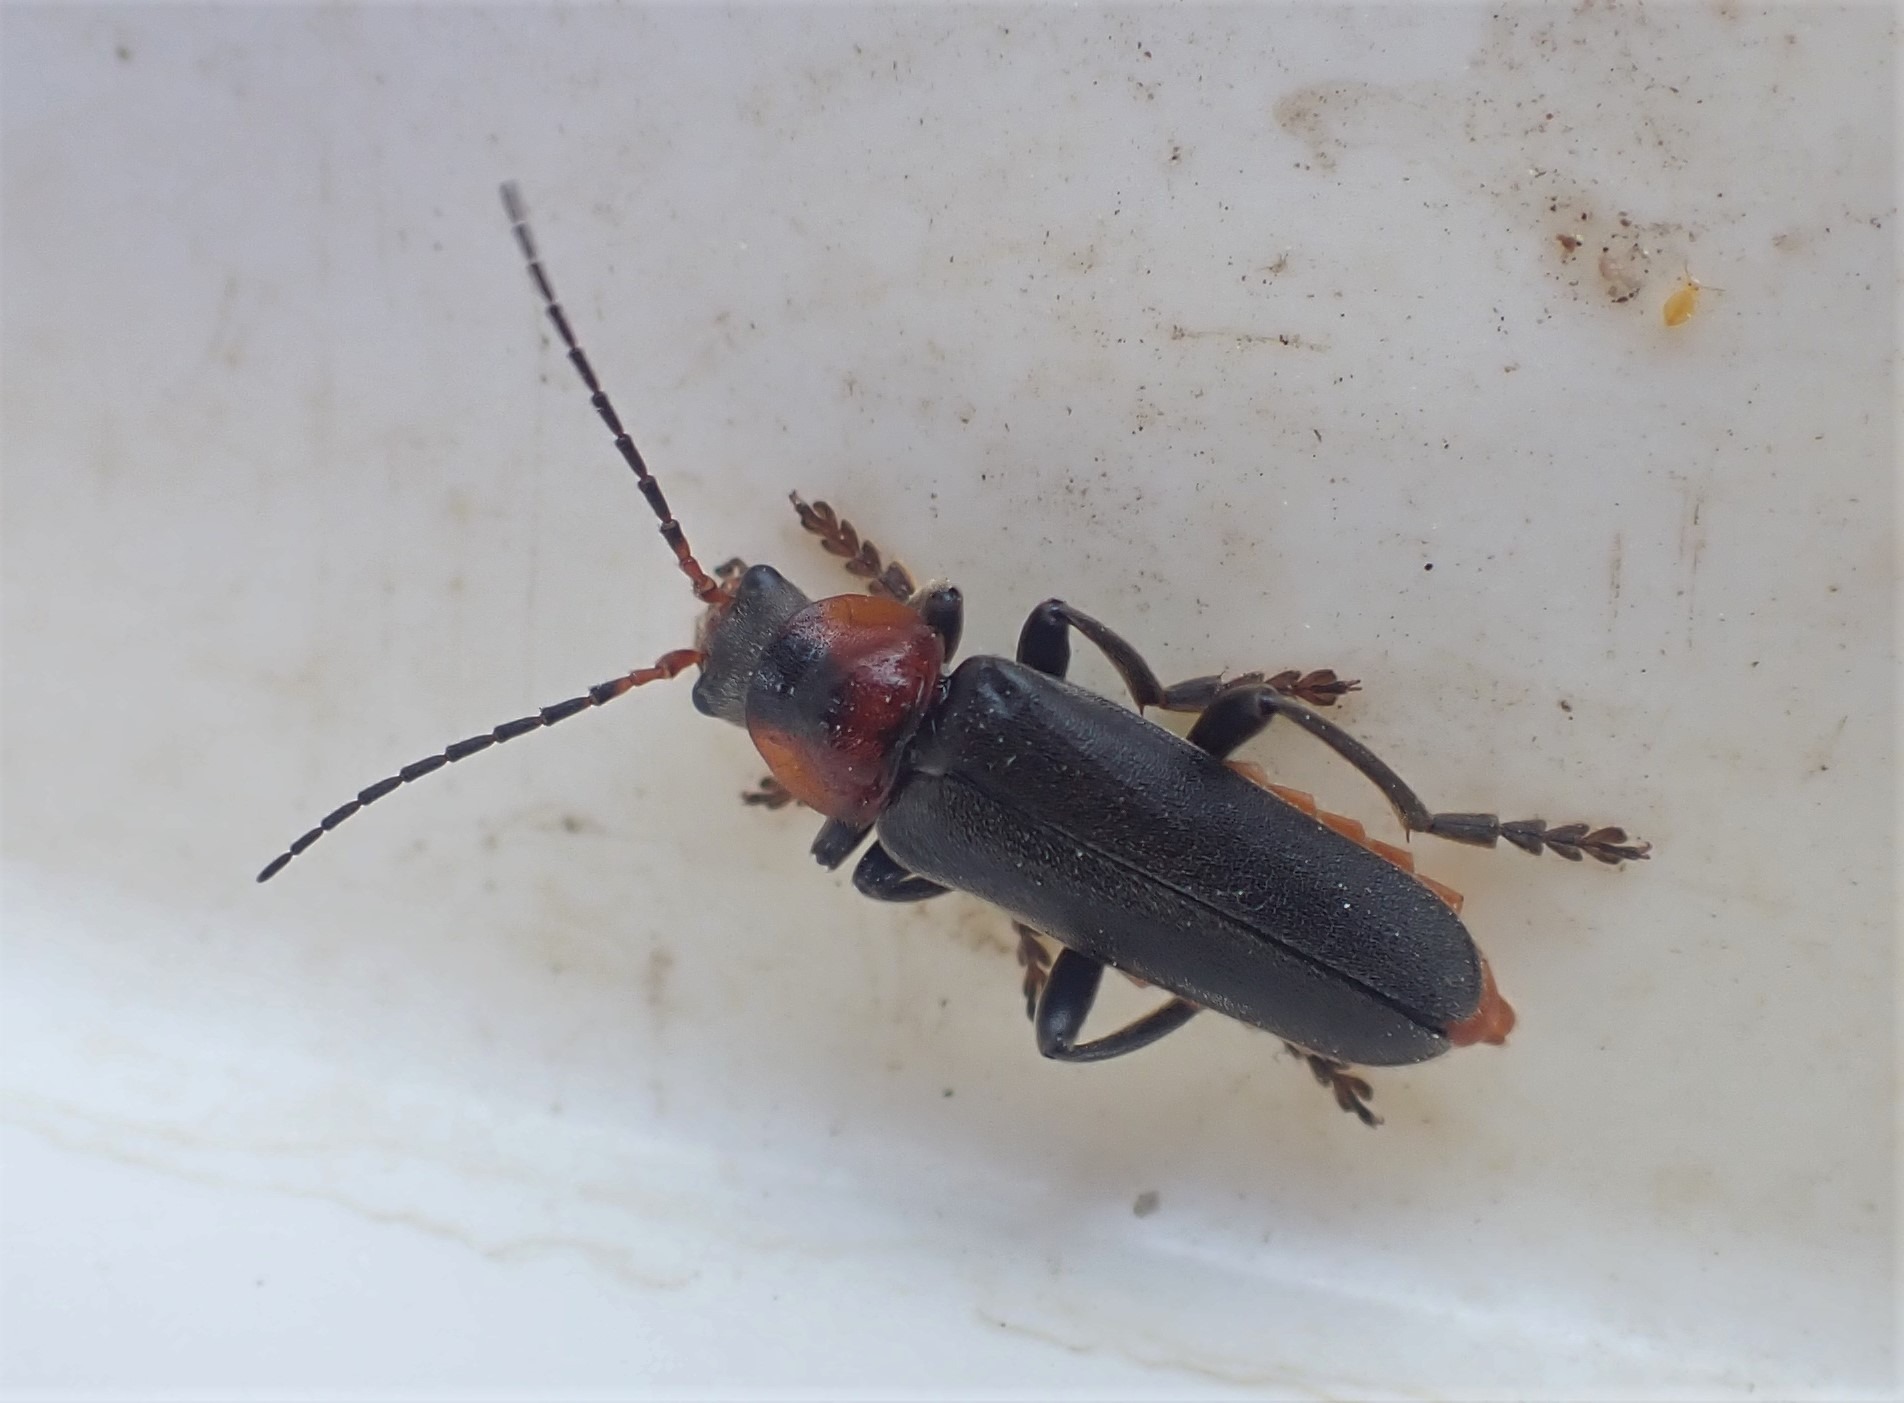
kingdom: Animalia
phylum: Arthropoda
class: Insecta
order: Coleoptera
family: Cantharidae
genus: Cantharis
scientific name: Cantharis fusca
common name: Stor blødvinge
